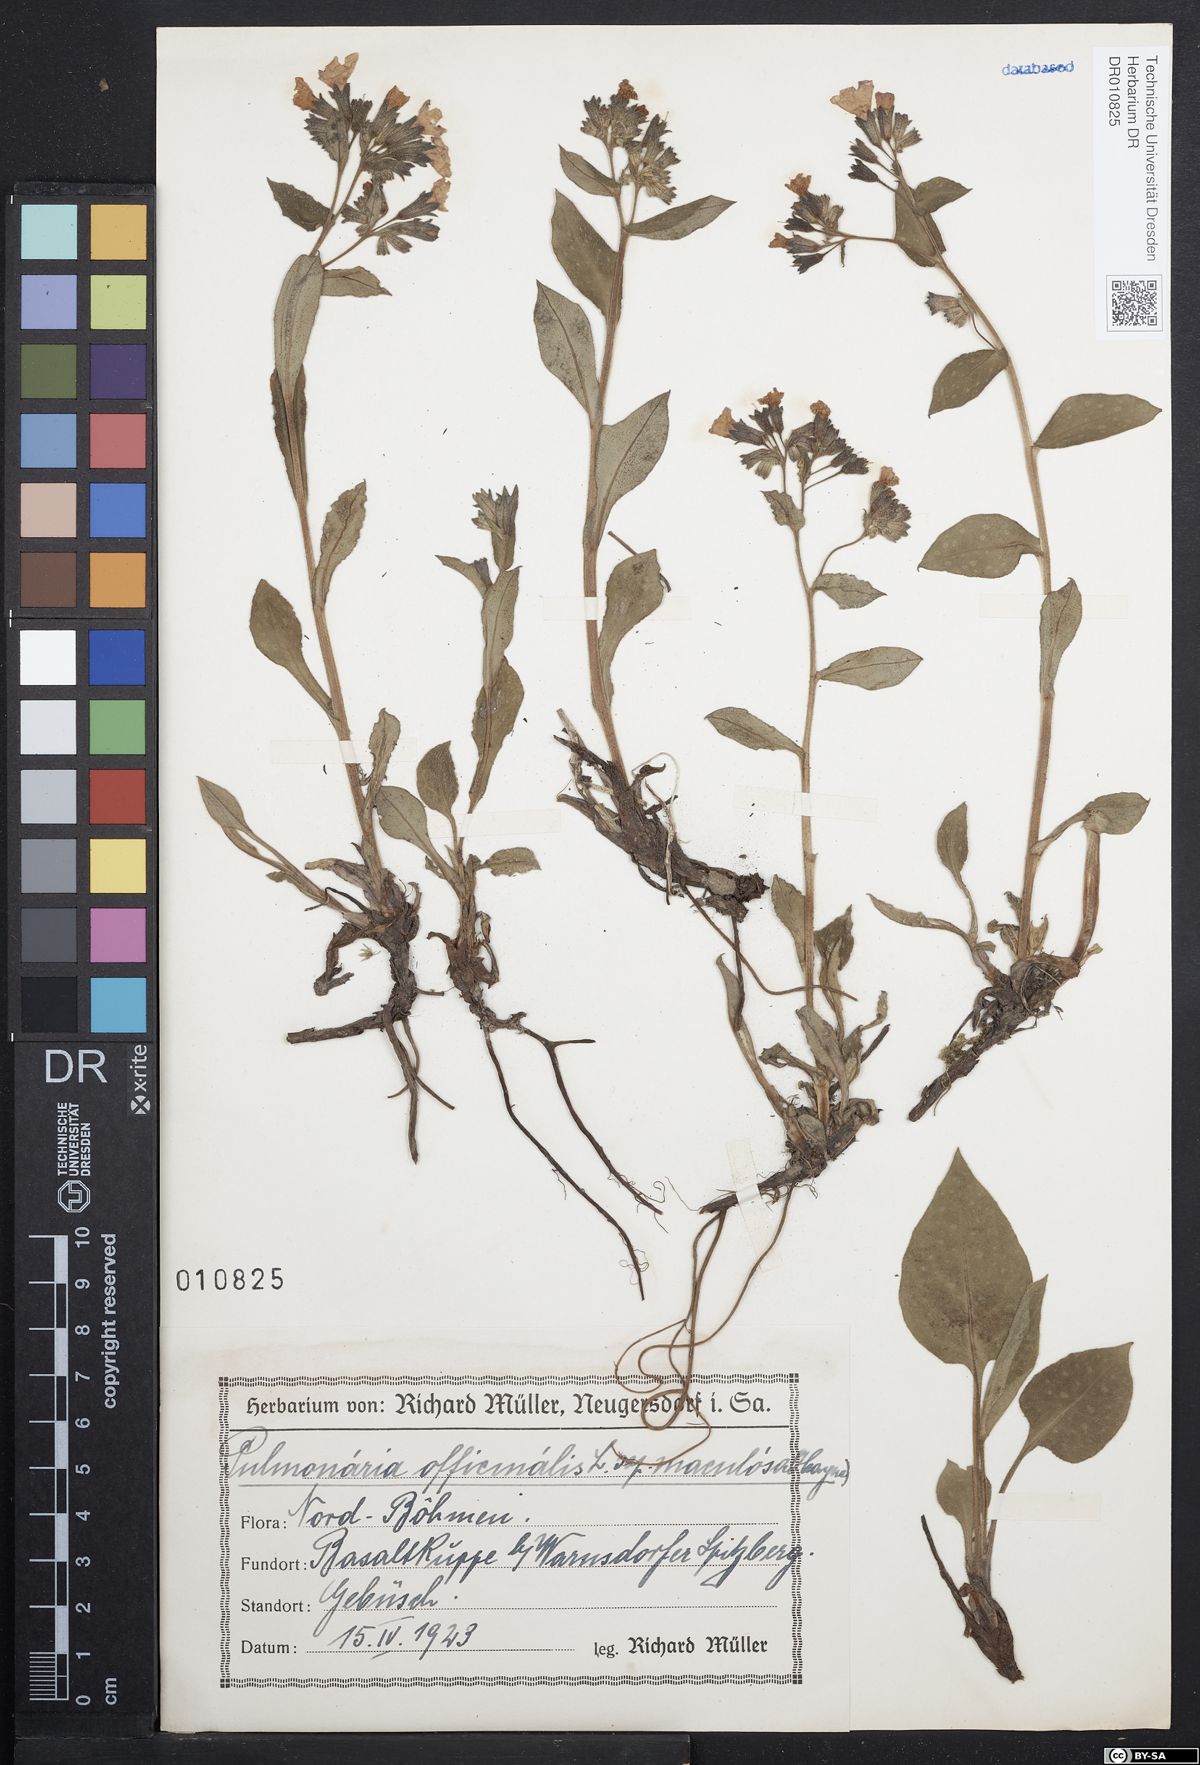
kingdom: Plantae
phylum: Tracheophyta
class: Magnoliopsida
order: Boraginales
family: Boraginaceae
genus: Pulmonaria
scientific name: Pulmonaria officinalis
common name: Lungwort
